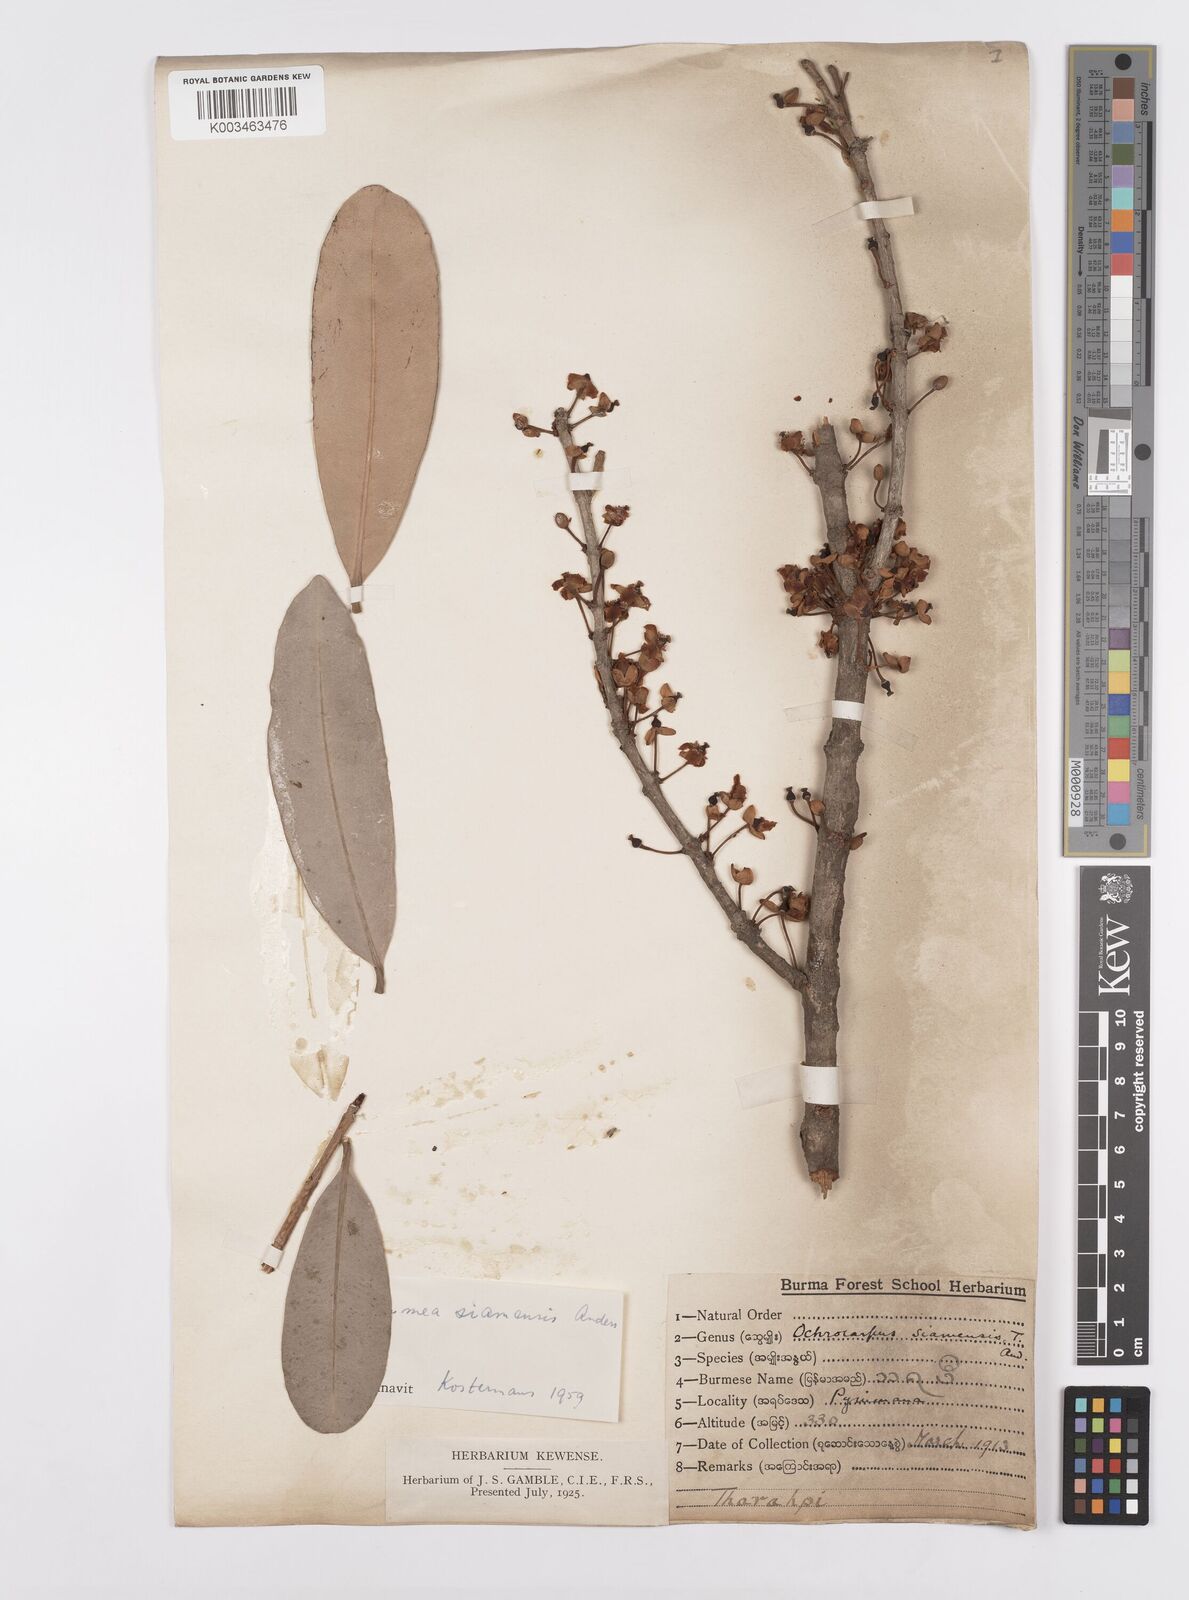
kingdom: Plantae
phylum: Tracheophyta
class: Magnoliopsida
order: Malpighiales
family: Calophyllaceae
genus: Mammea
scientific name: Mammea siamensis
